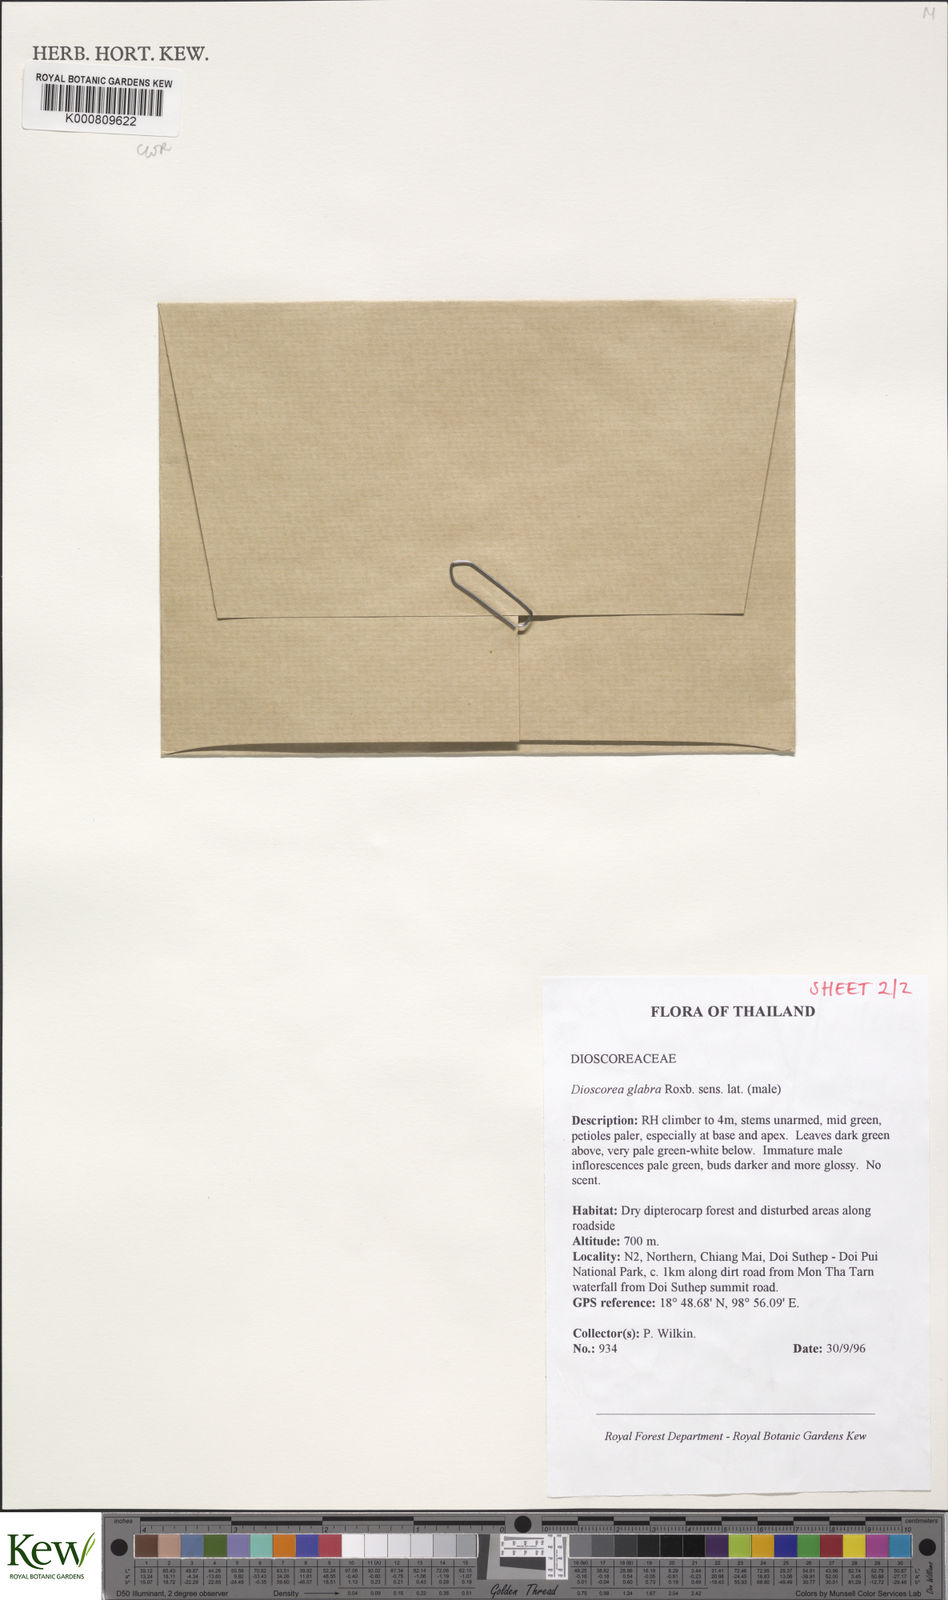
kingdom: Plantae
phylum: Tracheophyta
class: Liliopsida
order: Dioscoreales
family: Dioscoreaceae
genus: Dioscorea
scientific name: Dioscorea glabra
